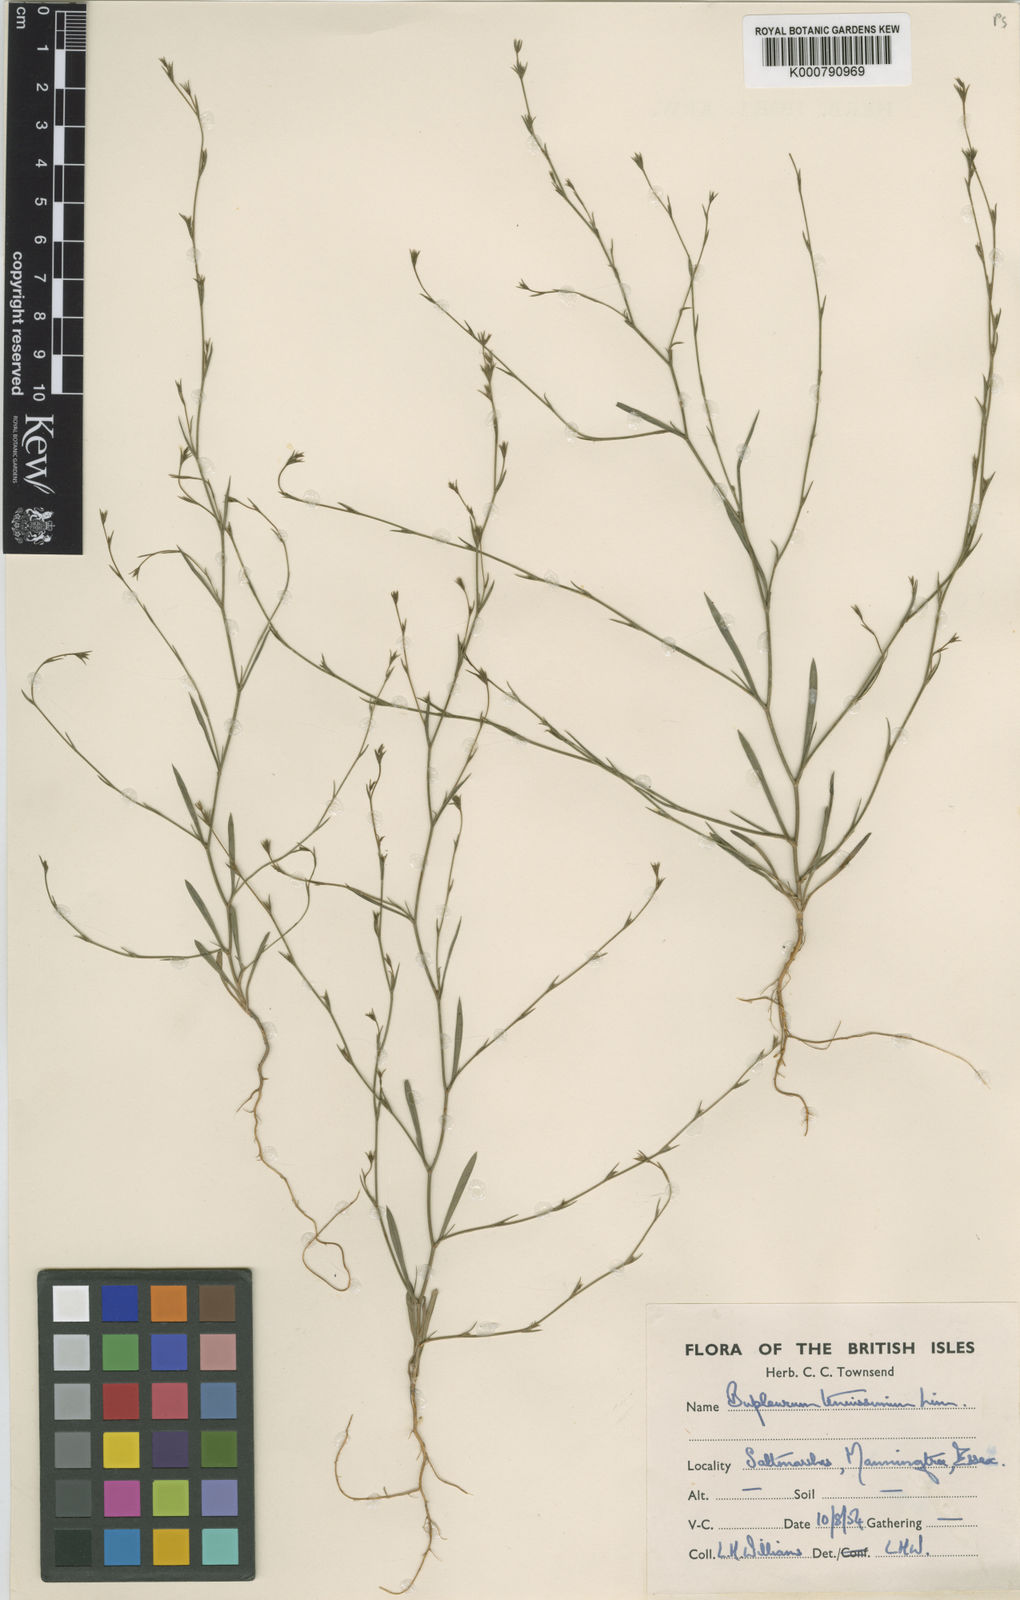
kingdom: Plantae
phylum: Tracheophyta
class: Magnoliopsida
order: Apiales
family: Apiaceae
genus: Bupleurum
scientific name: Bupleurum tenuissimum
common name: Slender hare's-ear
